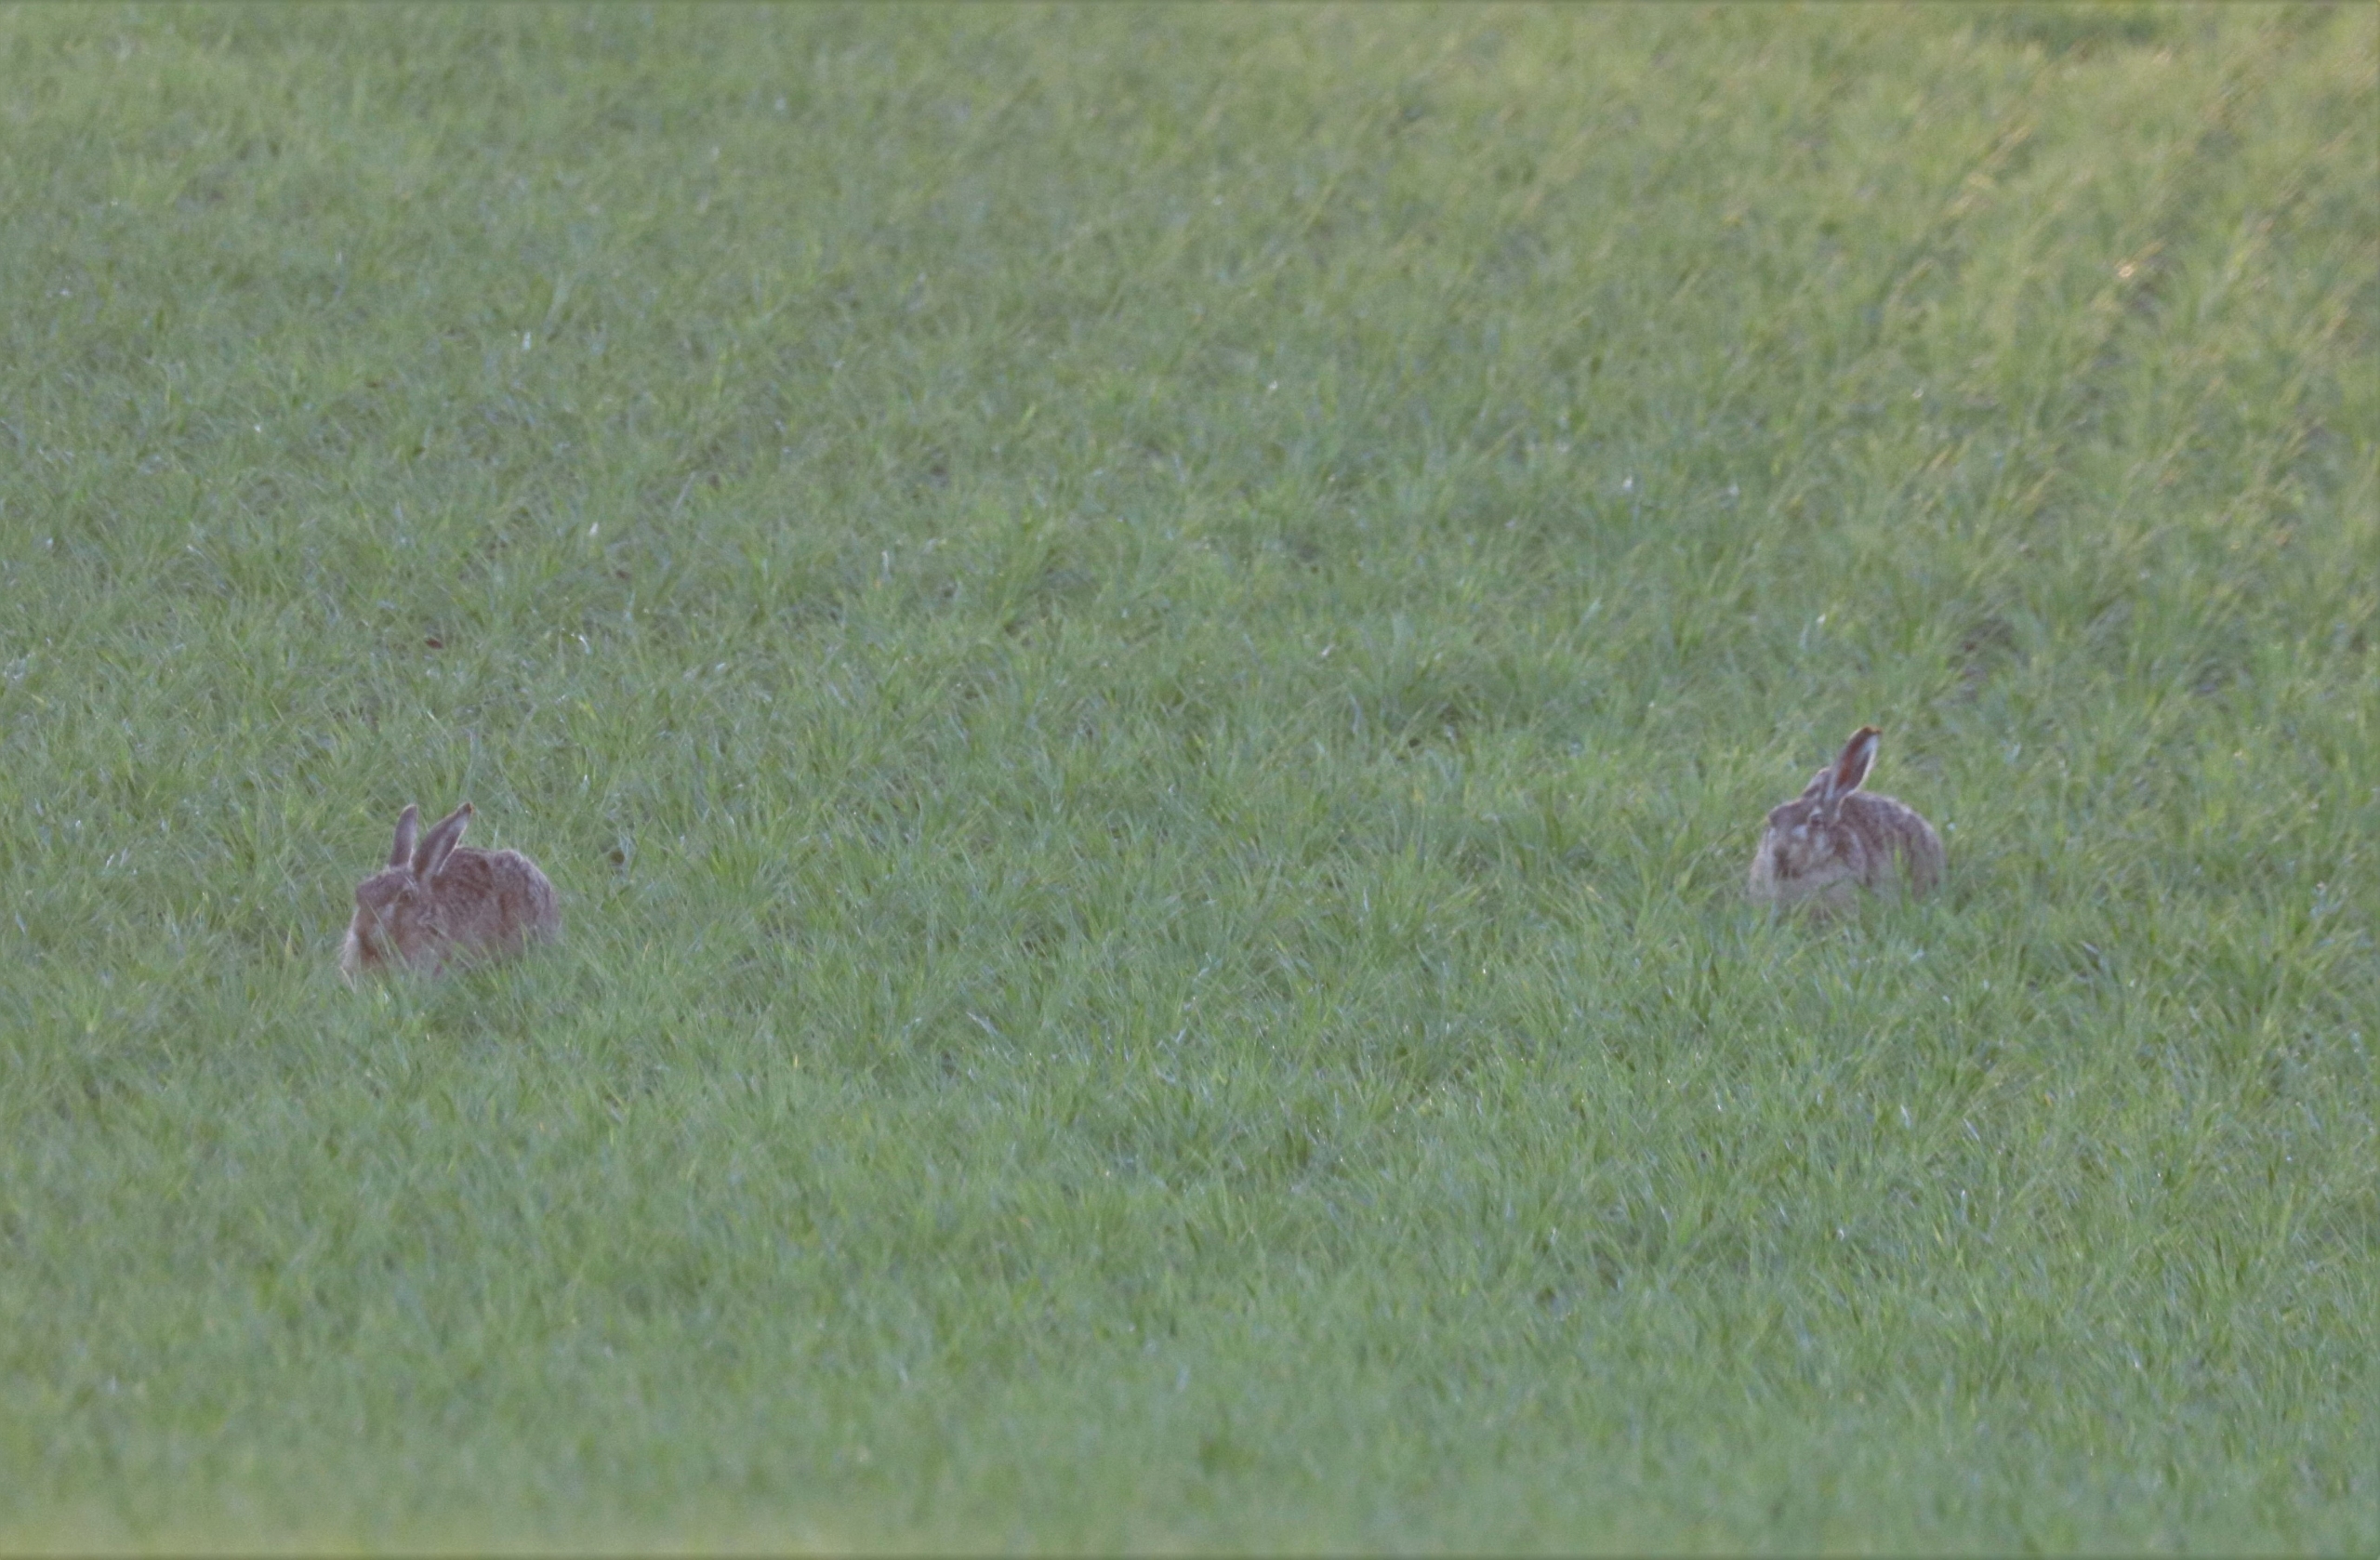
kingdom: Animalia
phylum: Chordata
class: Mammalia
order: Lagomorpha
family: Leporidae
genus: Lepus
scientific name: Lepus europaeus
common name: Hare
